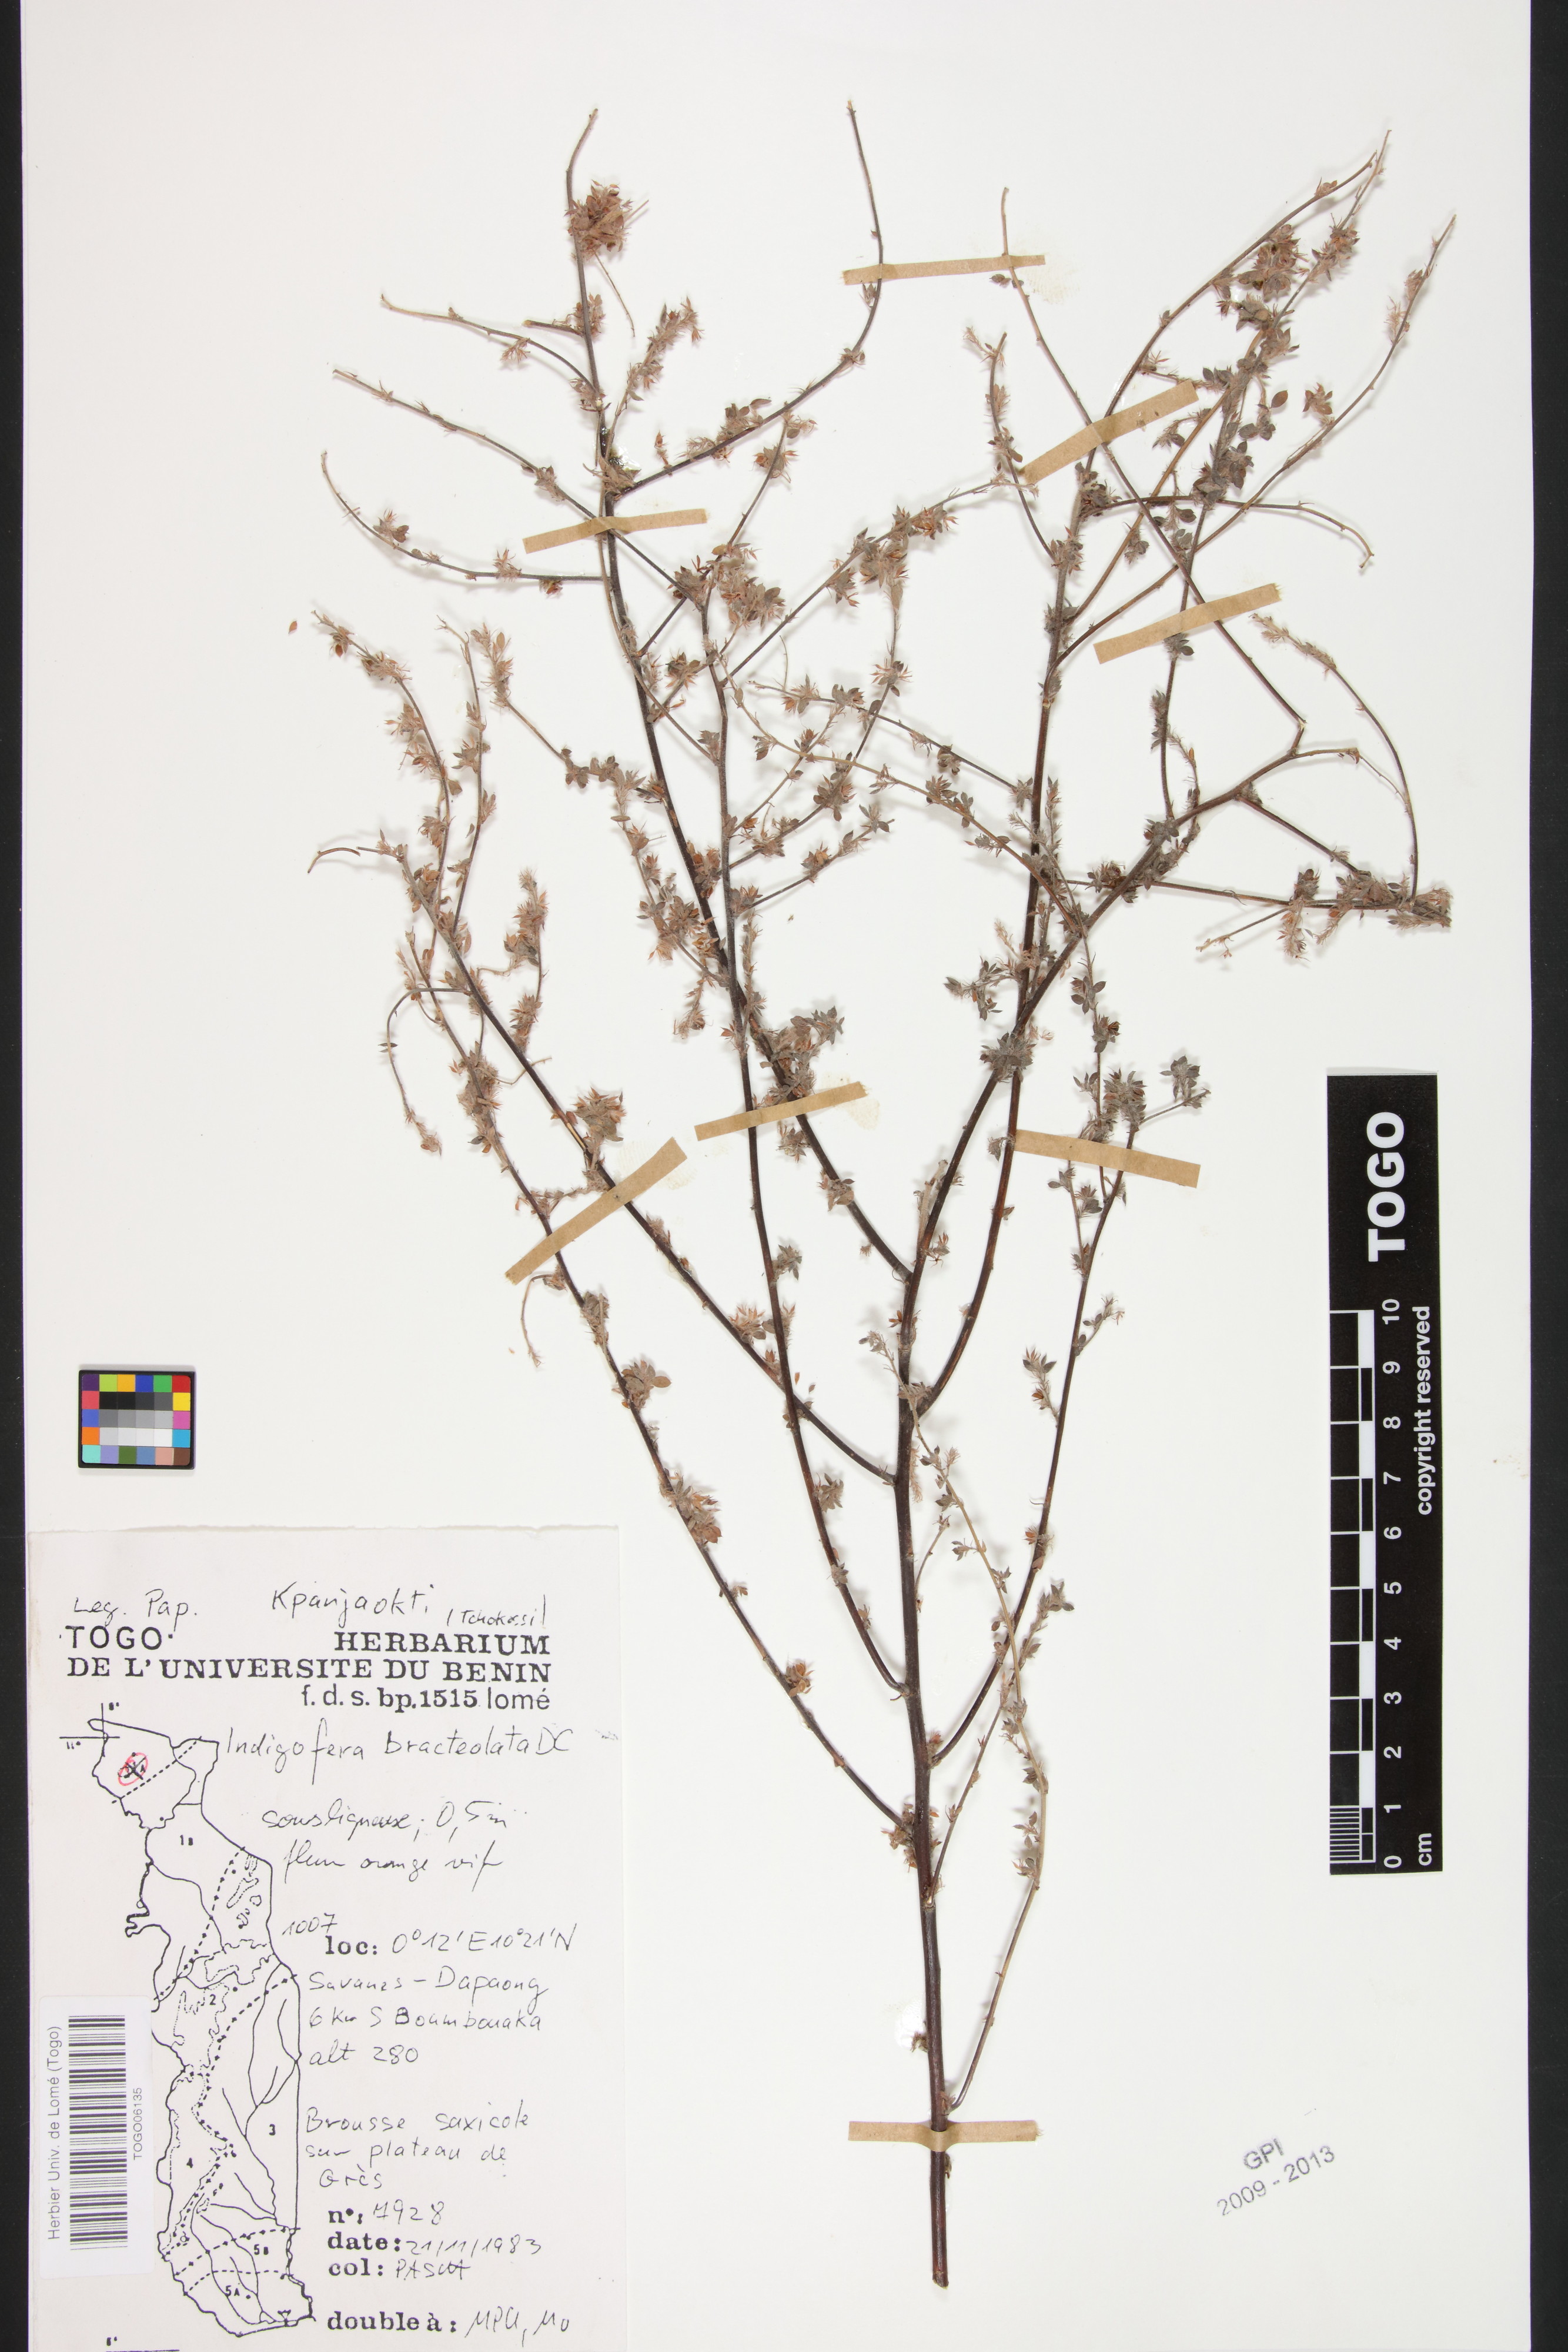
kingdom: Plantae
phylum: Tracheophyta
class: Magnoliopsida
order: Fabales
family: Fabaceae
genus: Indigofera
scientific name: Indigofera bracteolata
